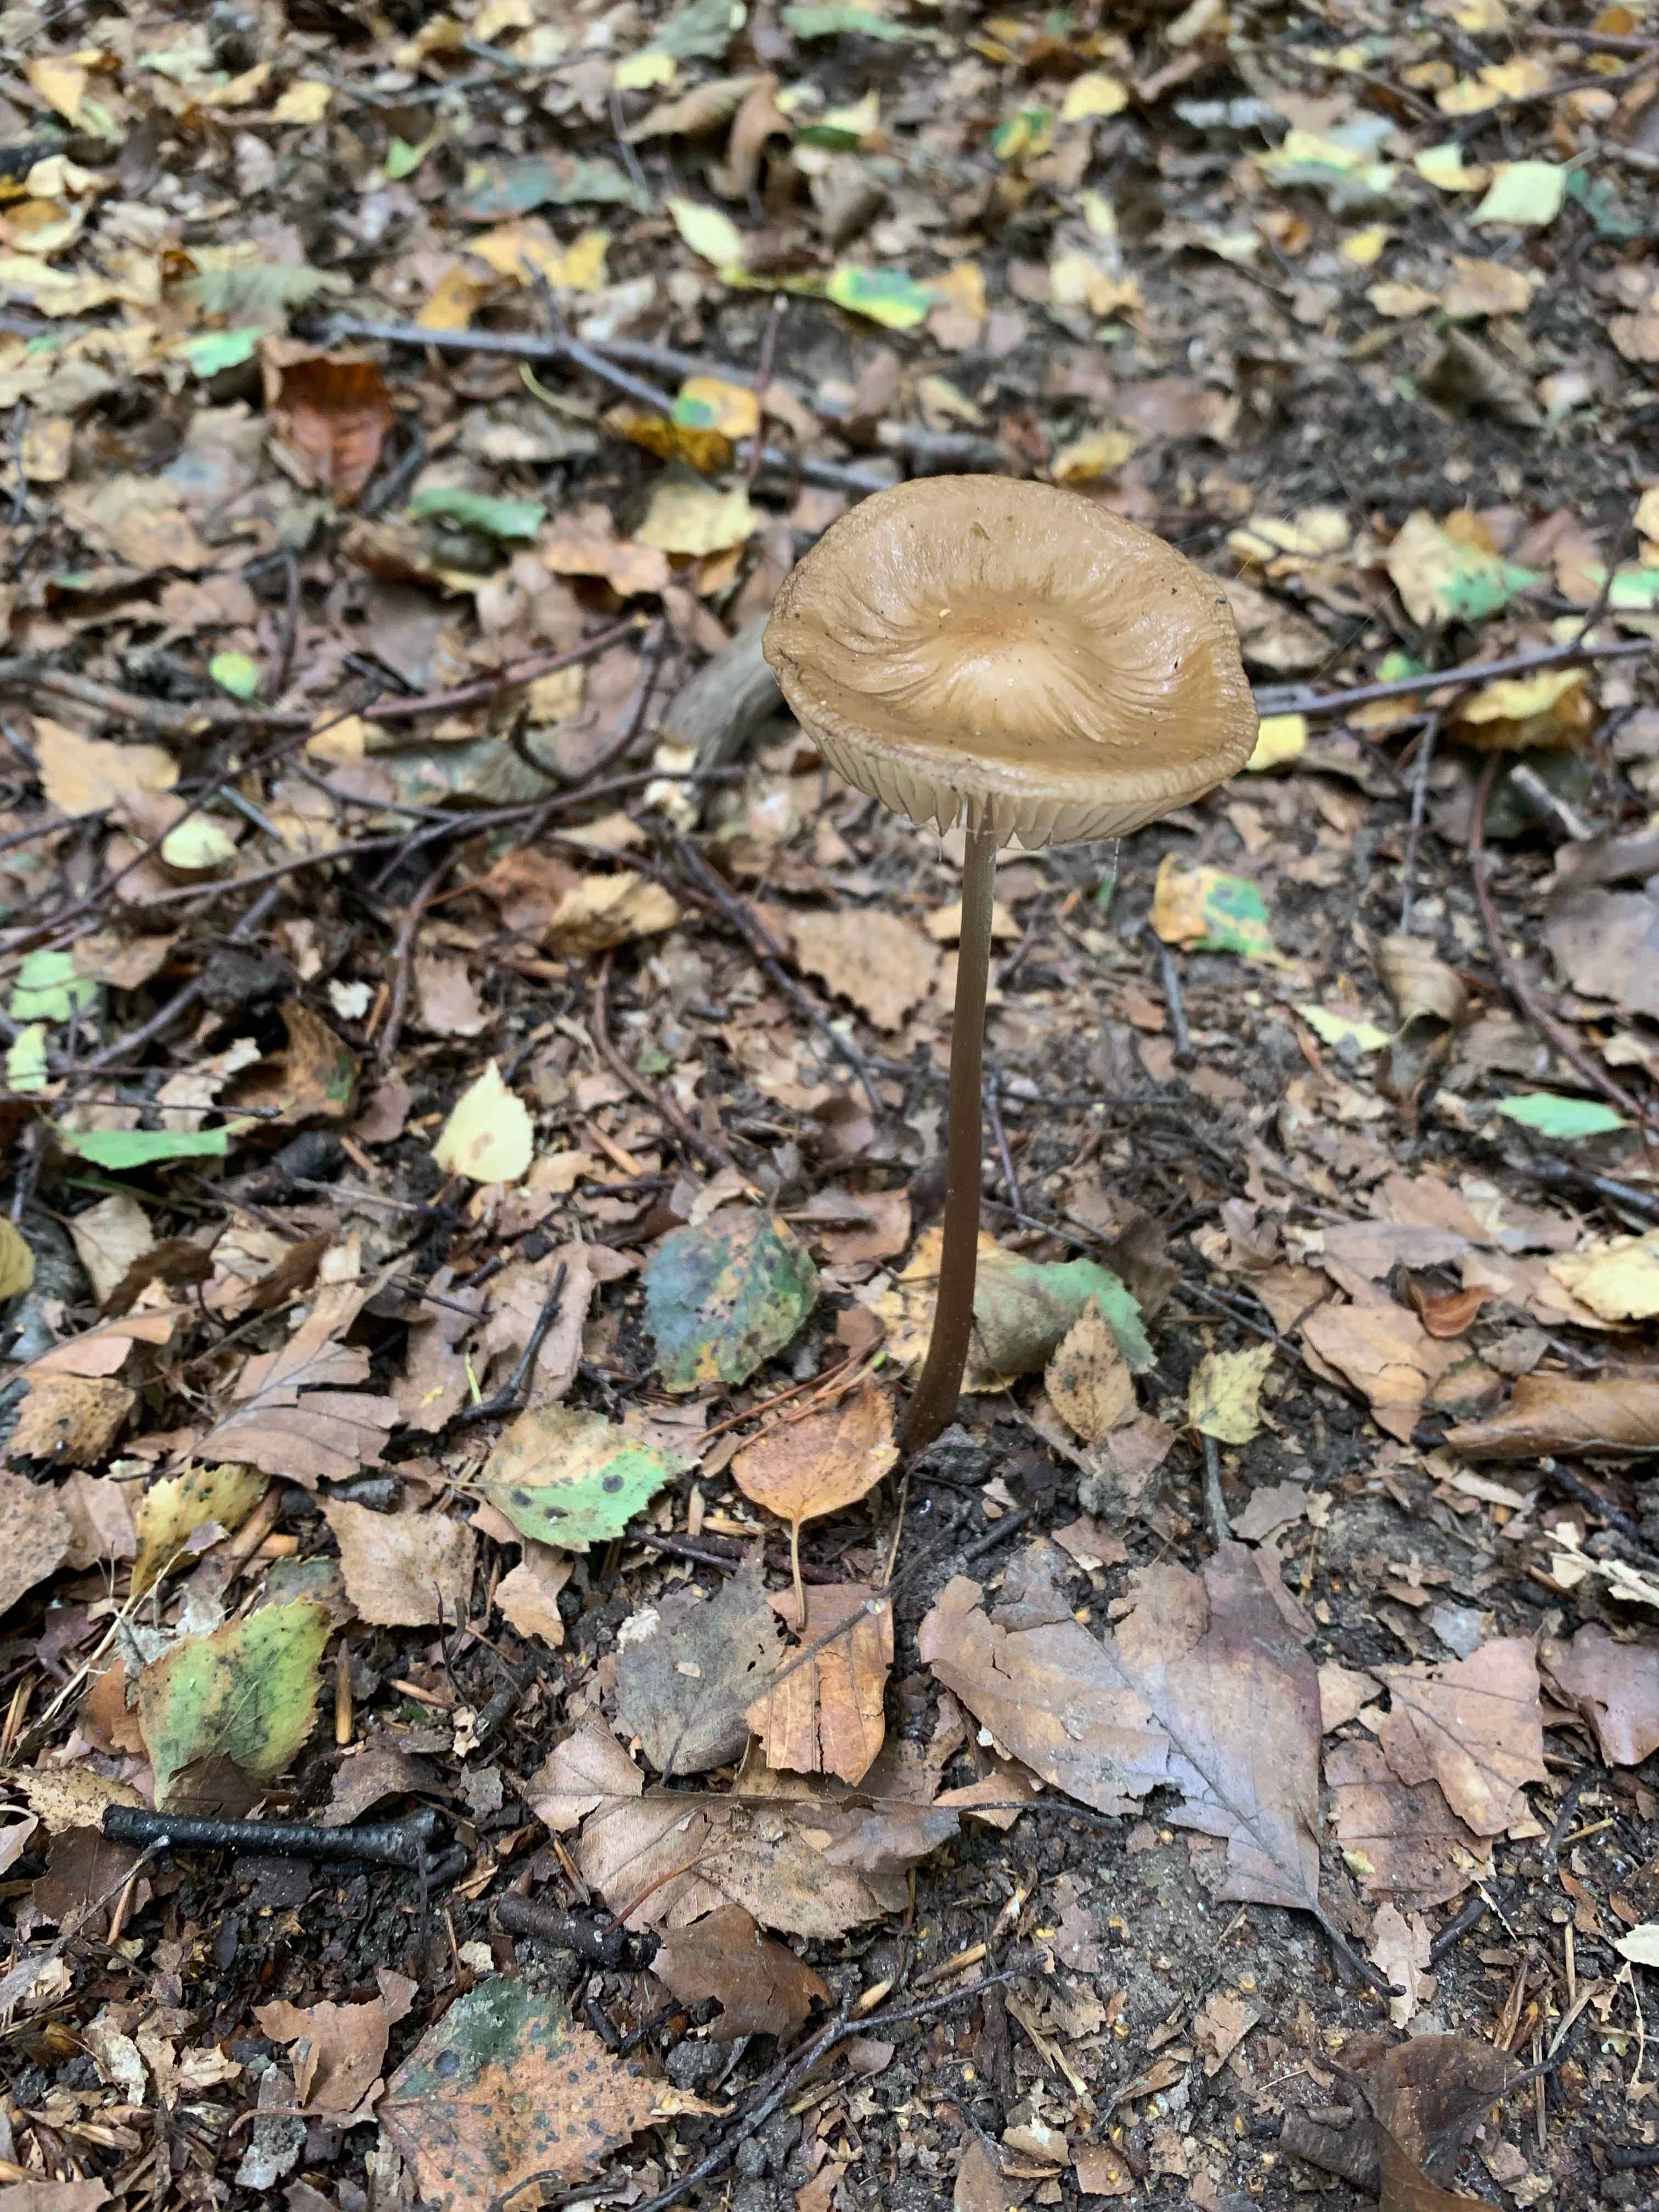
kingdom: Fungi
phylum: Basidiomycota
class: Agaricomycetes
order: Agaricales
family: Physalacriaceae
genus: Hymenopellis
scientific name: Hymenopellis radicata
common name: almindelig pælerodshat
